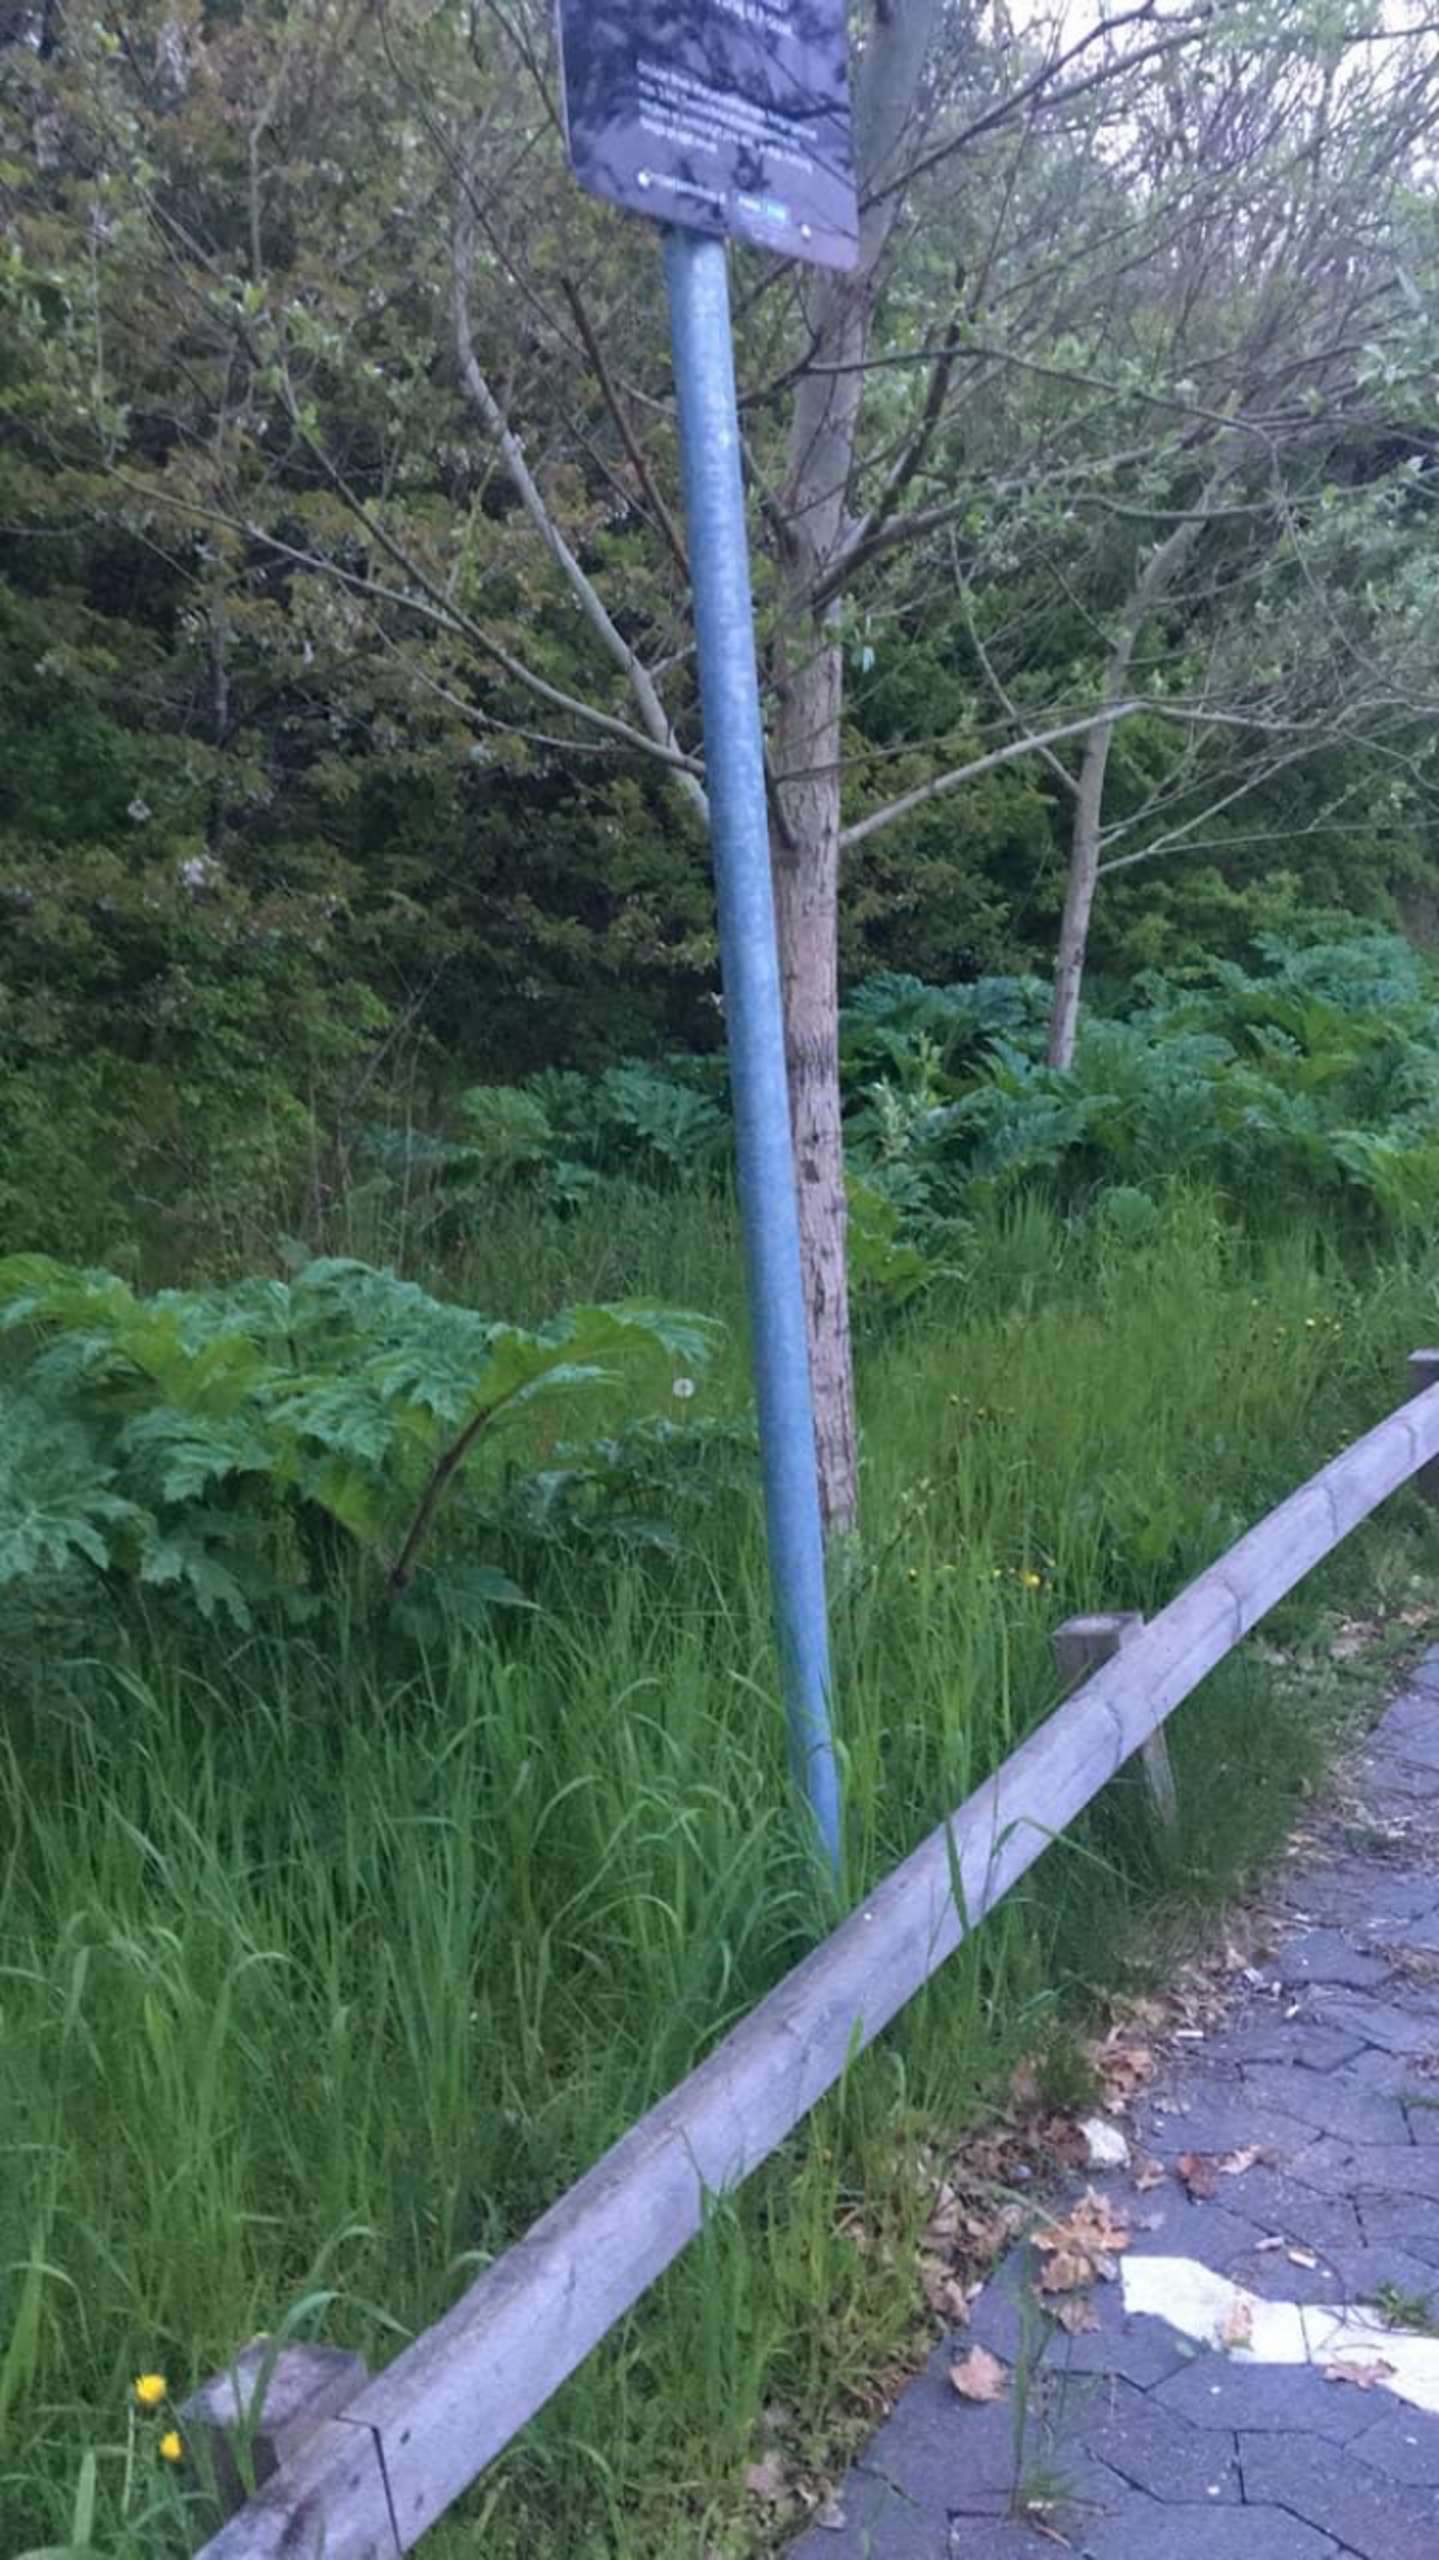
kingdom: Plantae
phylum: Tracheophyta
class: Magnoliopsida
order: Apiales
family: Apiaceae
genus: Heracleum
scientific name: Heracleum mantegazzianum
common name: Kæmpe-bjørneklo
